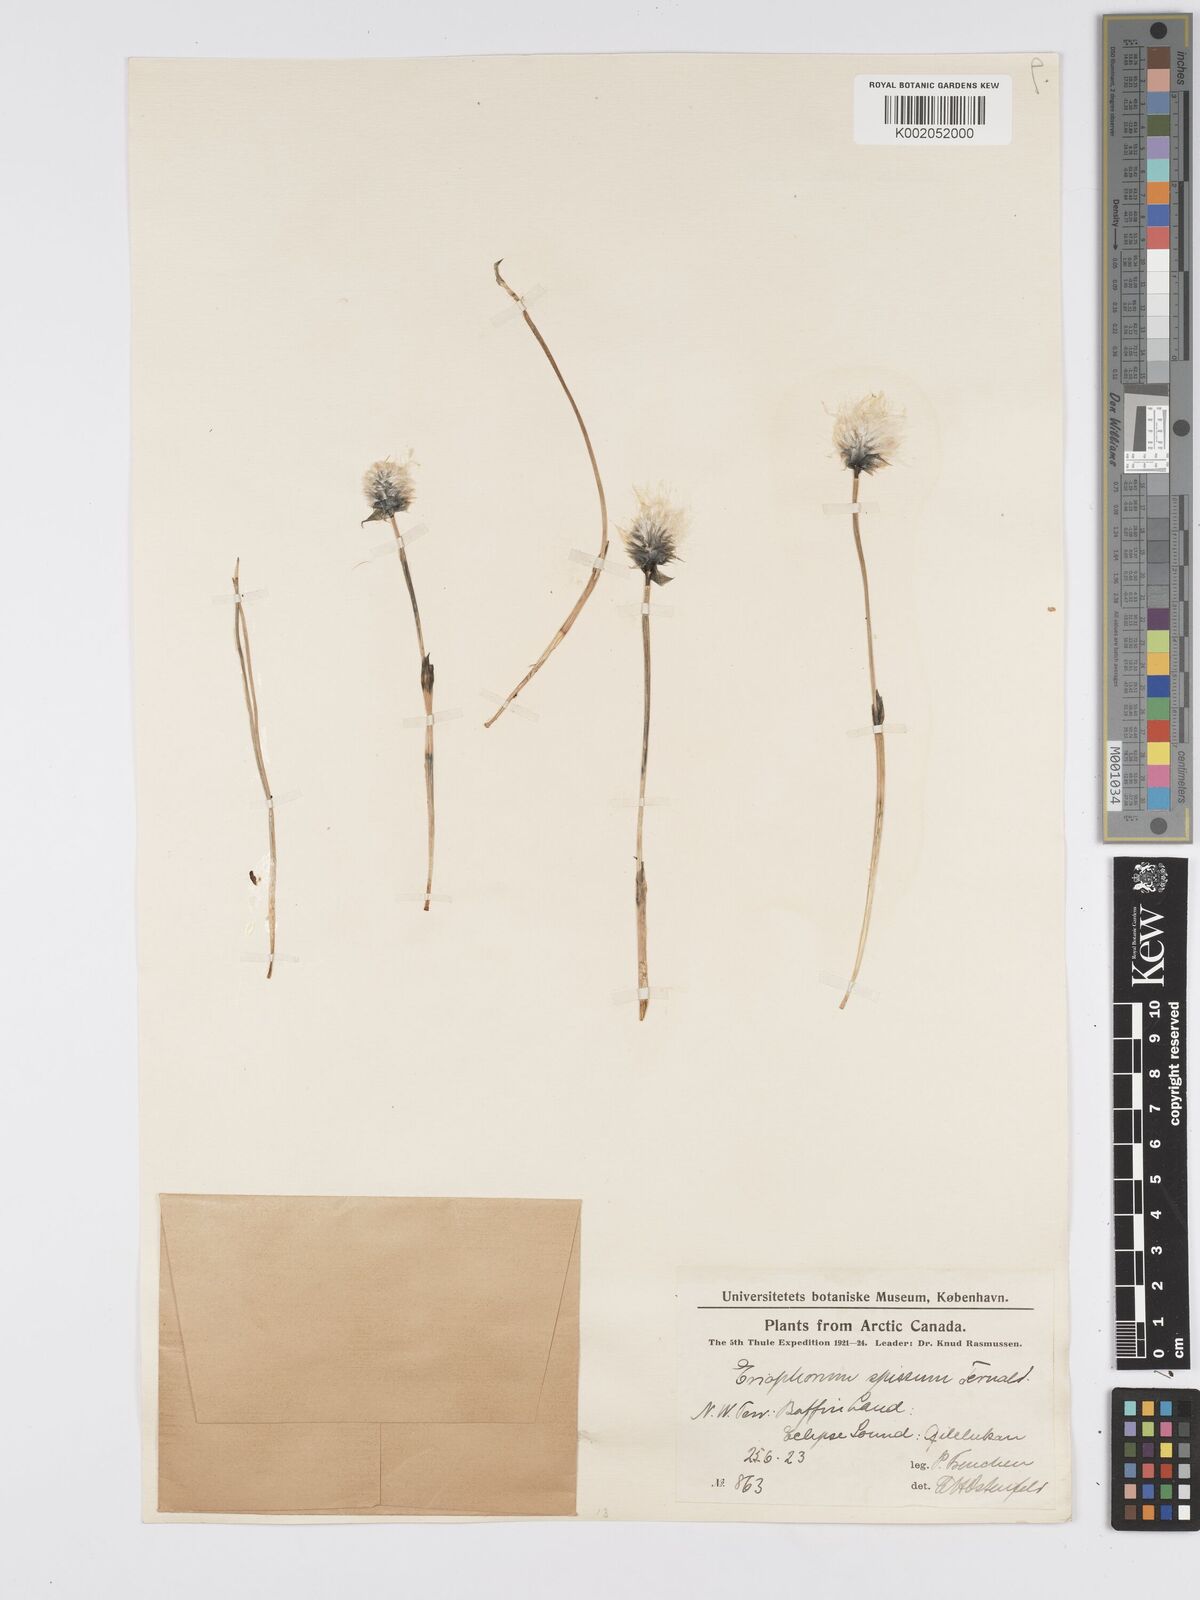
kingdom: Plantae
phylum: Tracheophyta
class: Liliopsida
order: Poales
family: Cyperaceae
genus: Eriophorum
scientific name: Eriophorum vaginatum
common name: Hare's-tail cottongrass
